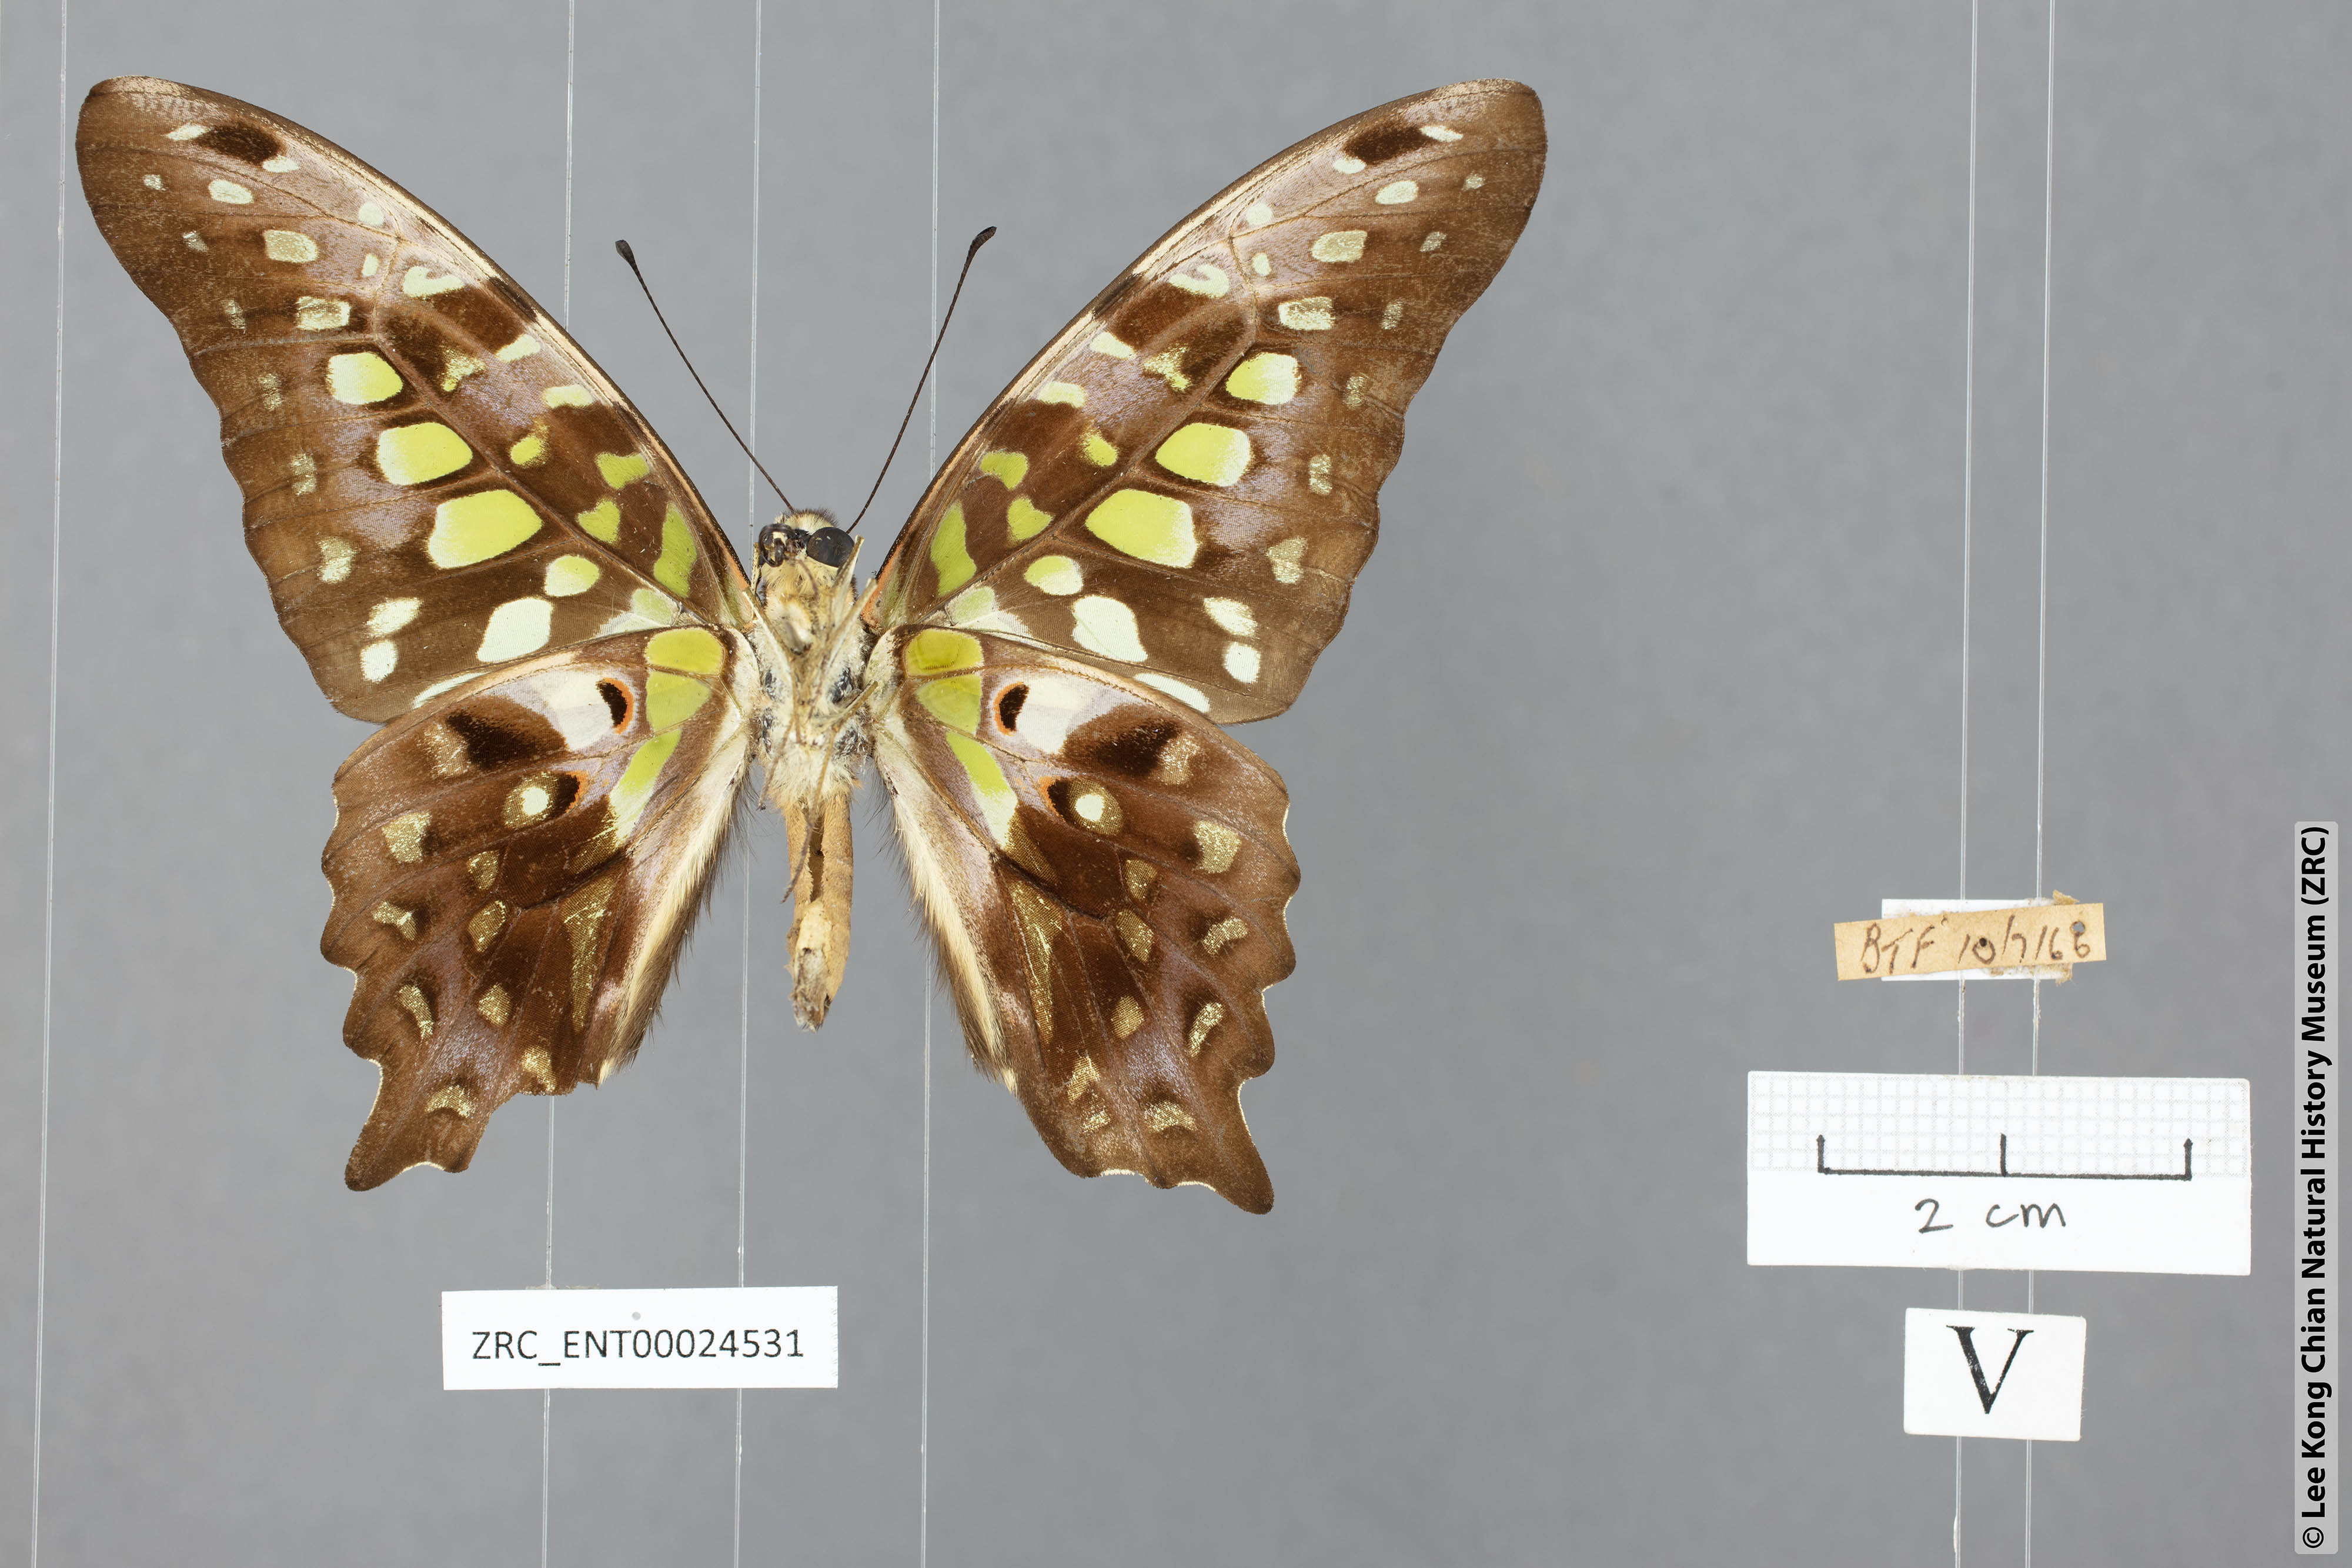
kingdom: Animalia
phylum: Arthropoda
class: Insecta
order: Lepidoptera
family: Papilionidae
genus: Graphium
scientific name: Graphium agamemnon
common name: Tailed jay
